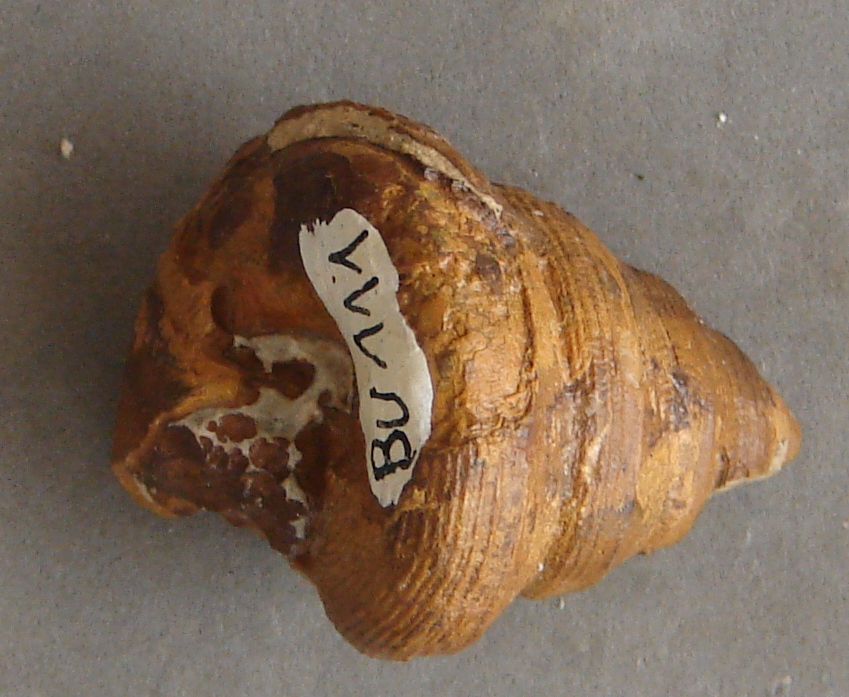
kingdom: Animalia
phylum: Mollusca
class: Gastropoda
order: Pleurotomariida
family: Pleurotomariidae
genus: Bathrotomaria
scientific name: Bathrotomaria Pleurotomaria subreticulata
